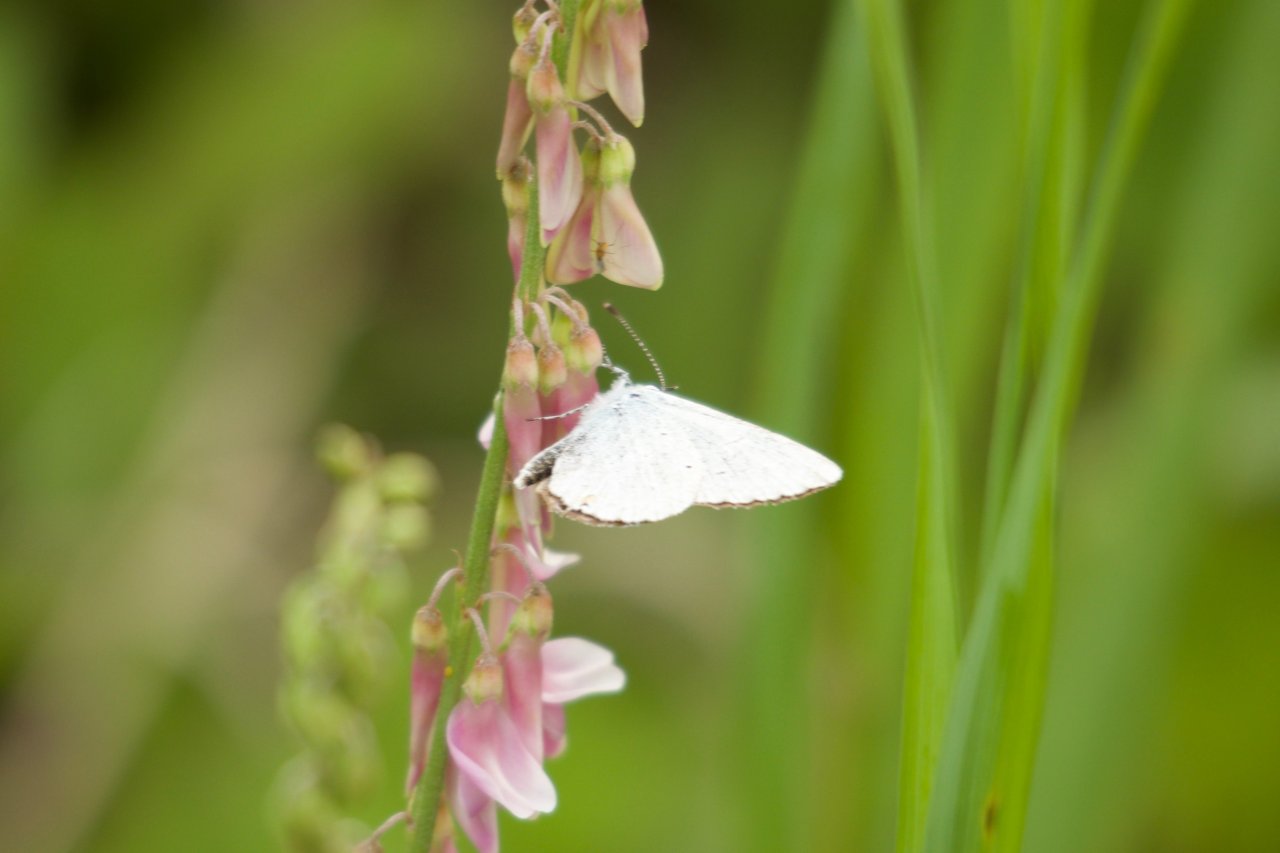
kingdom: Animalia
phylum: Arthropoda
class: Insecta
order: Lepidoptera
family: Lycaenidae
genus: Elkalyce
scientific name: Elkalyce amyntula
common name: Western Tailed-Blue
